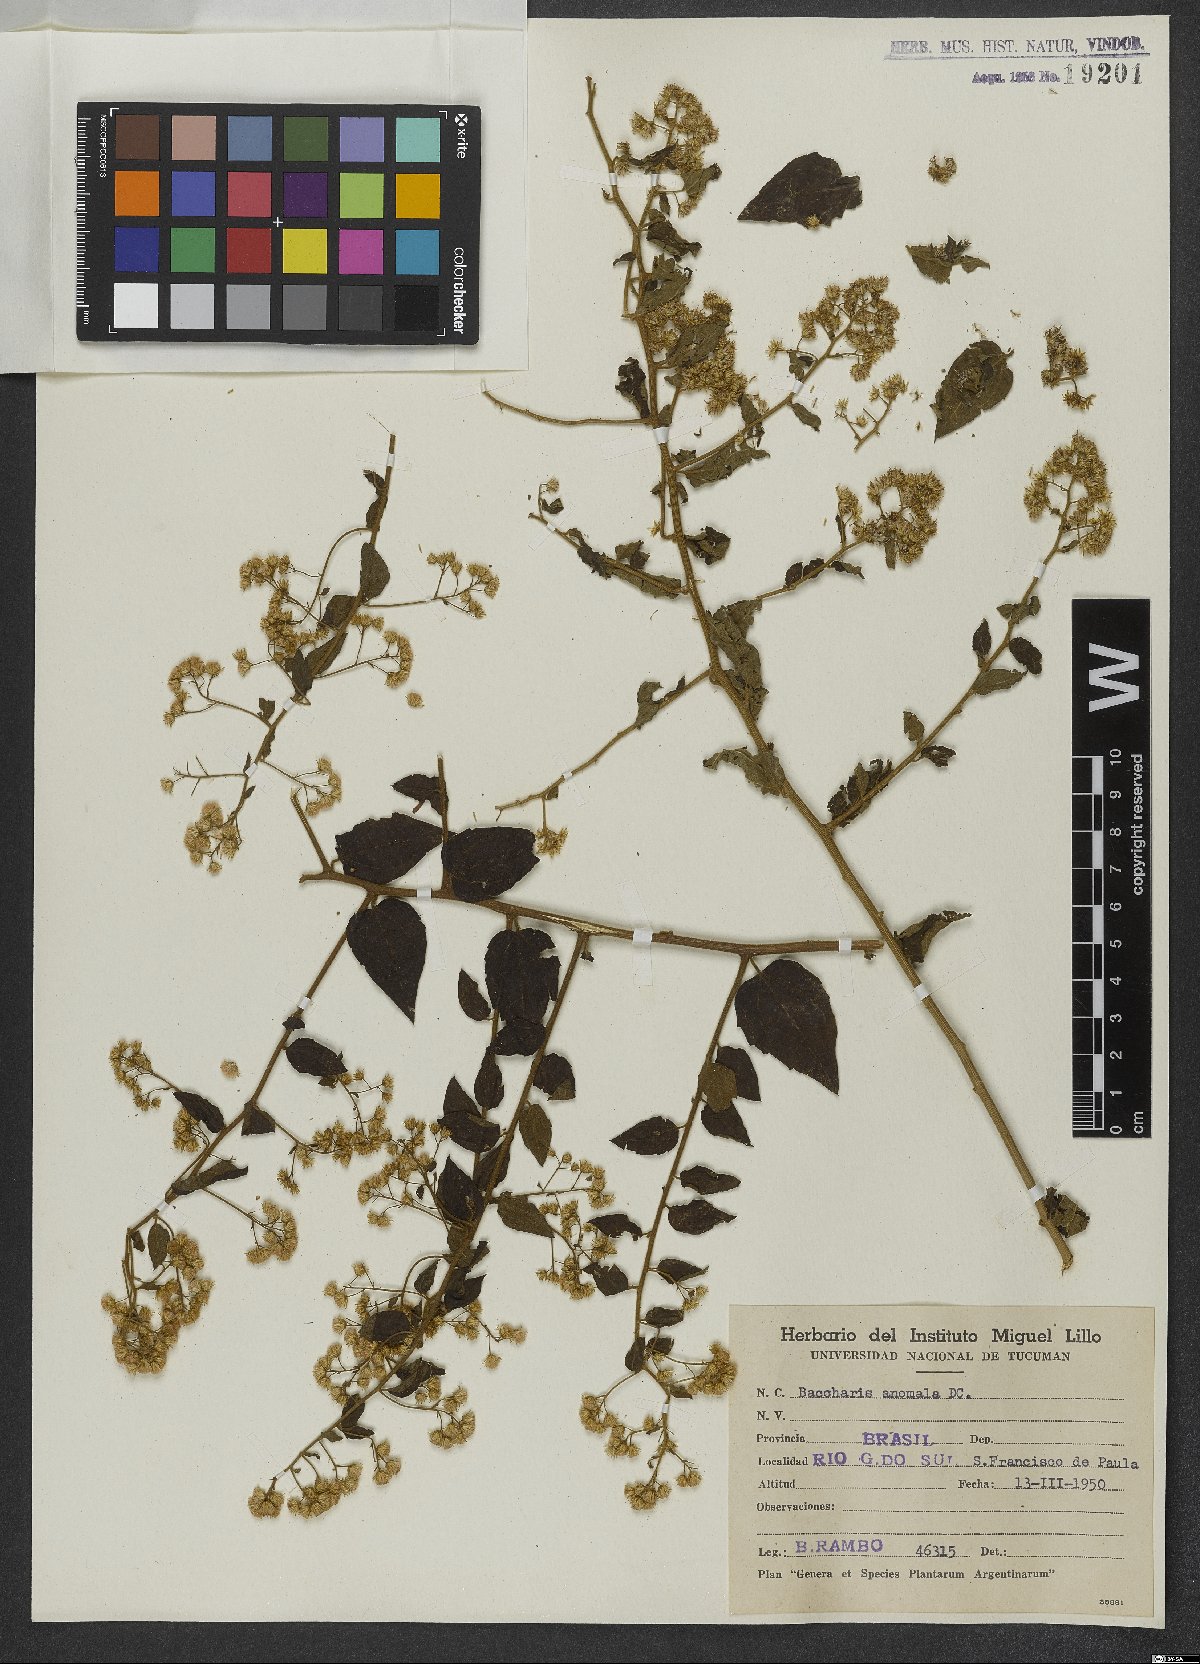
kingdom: Plantae
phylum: Tracheophyta
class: Magnoliopsida
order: Asterales
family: Asteraceae
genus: Baccharis
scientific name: Baccharis anomala
